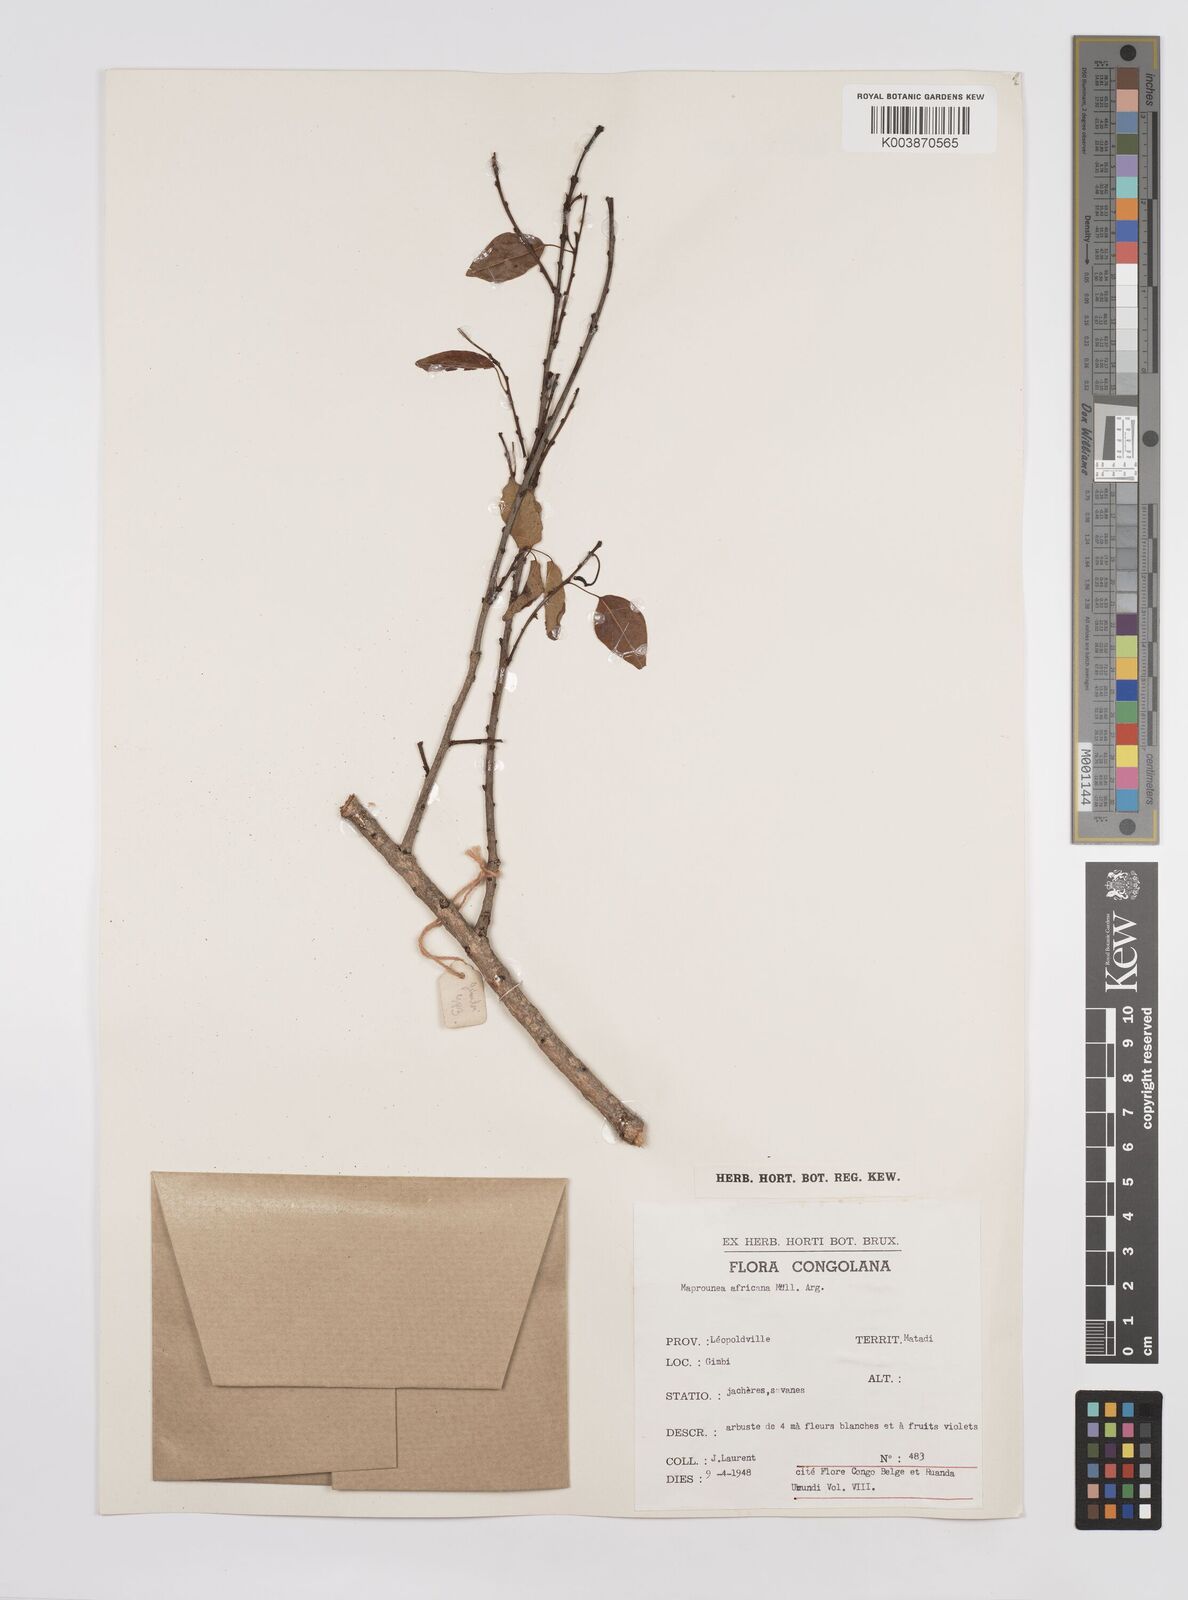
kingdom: Plantae
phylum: Tracheophyta
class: Magnoliopsida
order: Malpighiales
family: Euphorbiaceae
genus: Maprounea
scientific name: Maprounea africana
